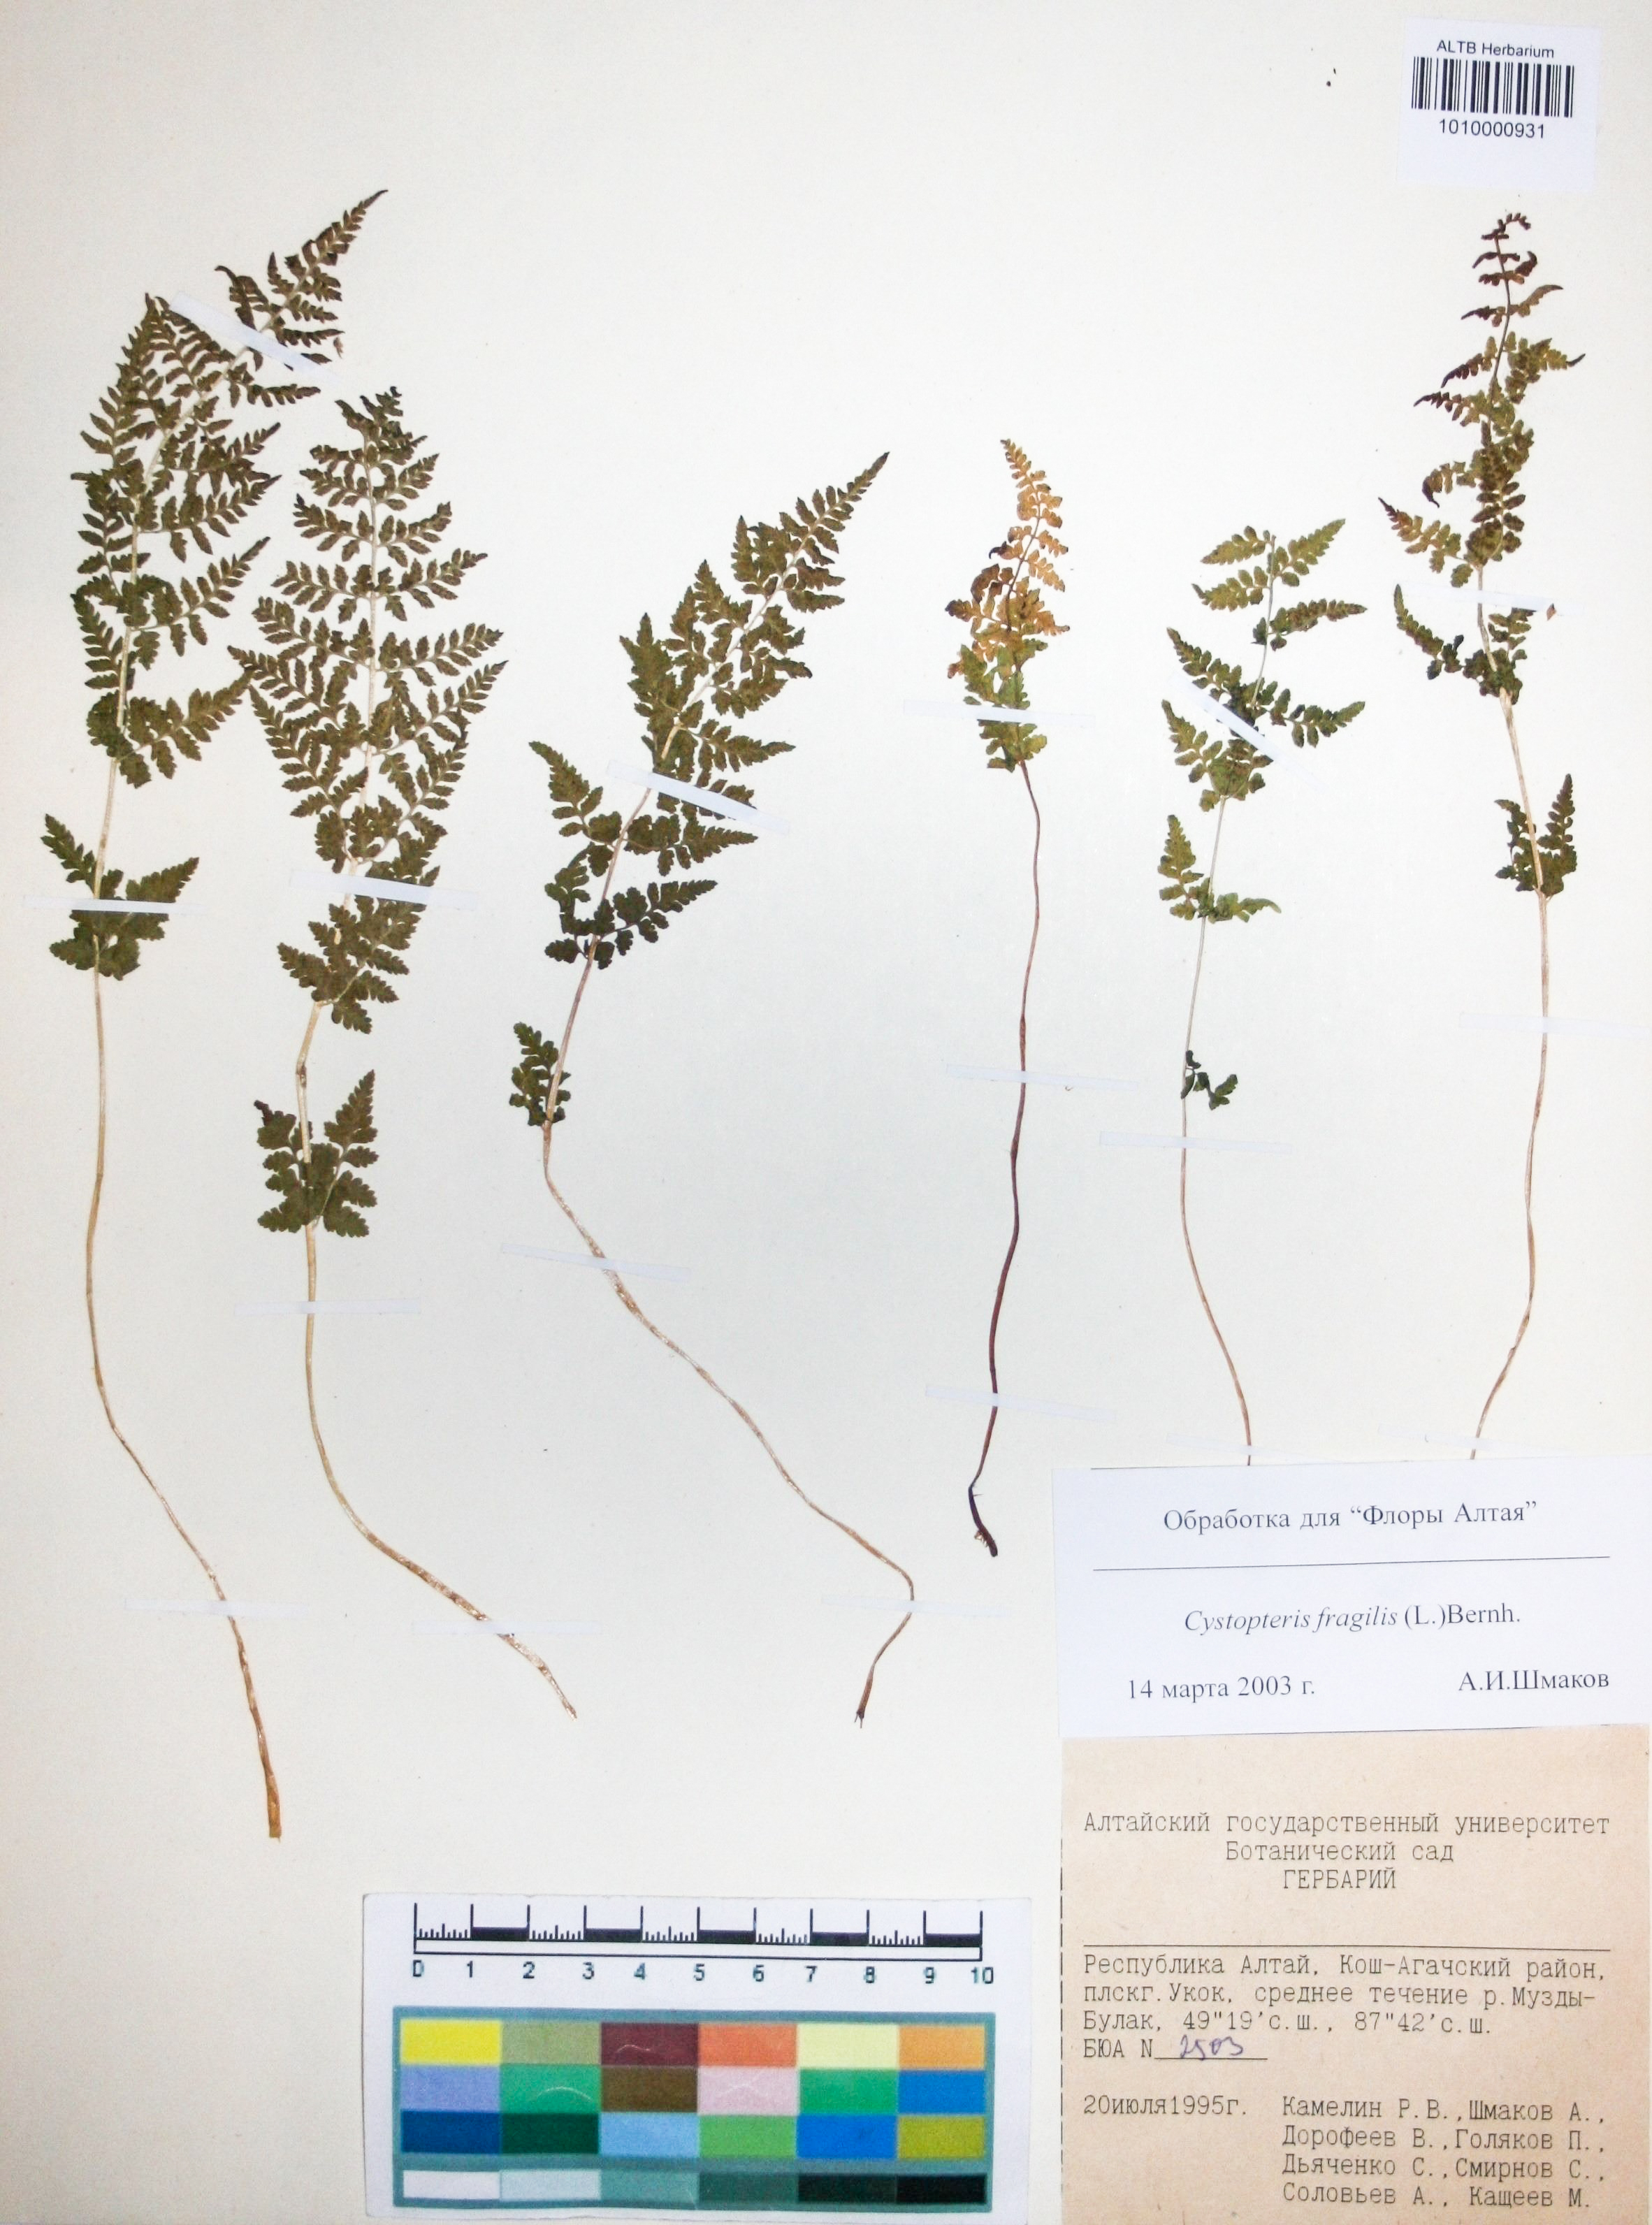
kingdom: Plantae
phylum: Tracheophyta
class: Polypodiopsida
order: Polypodiales
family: Cystopteridaceae
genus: Cystopteris
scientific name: Cystopteris fragilis
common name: Brittle bladder fern
